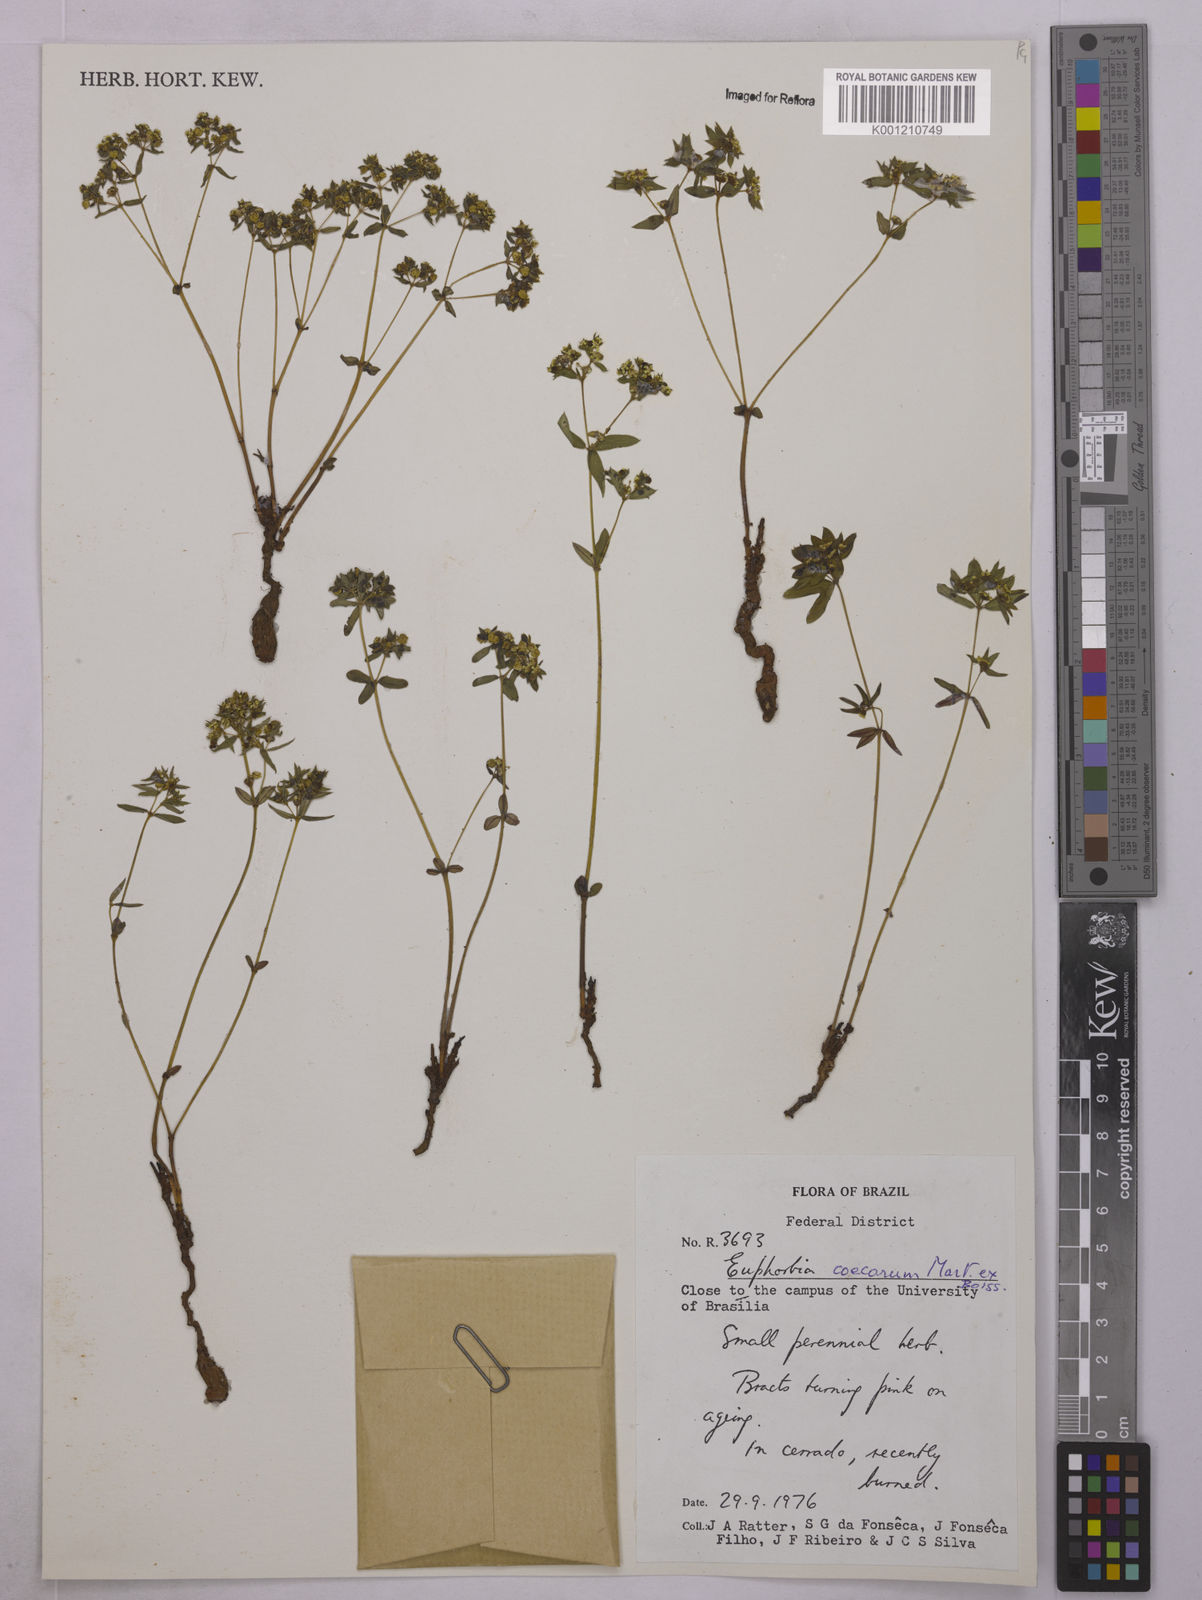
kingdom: Plantae
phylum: Tracheophyta
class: Magnoliopsida
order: Malpighiales
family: Euphorbiaceae
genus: Euphorbia
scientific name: Euphorbia potentilloides
